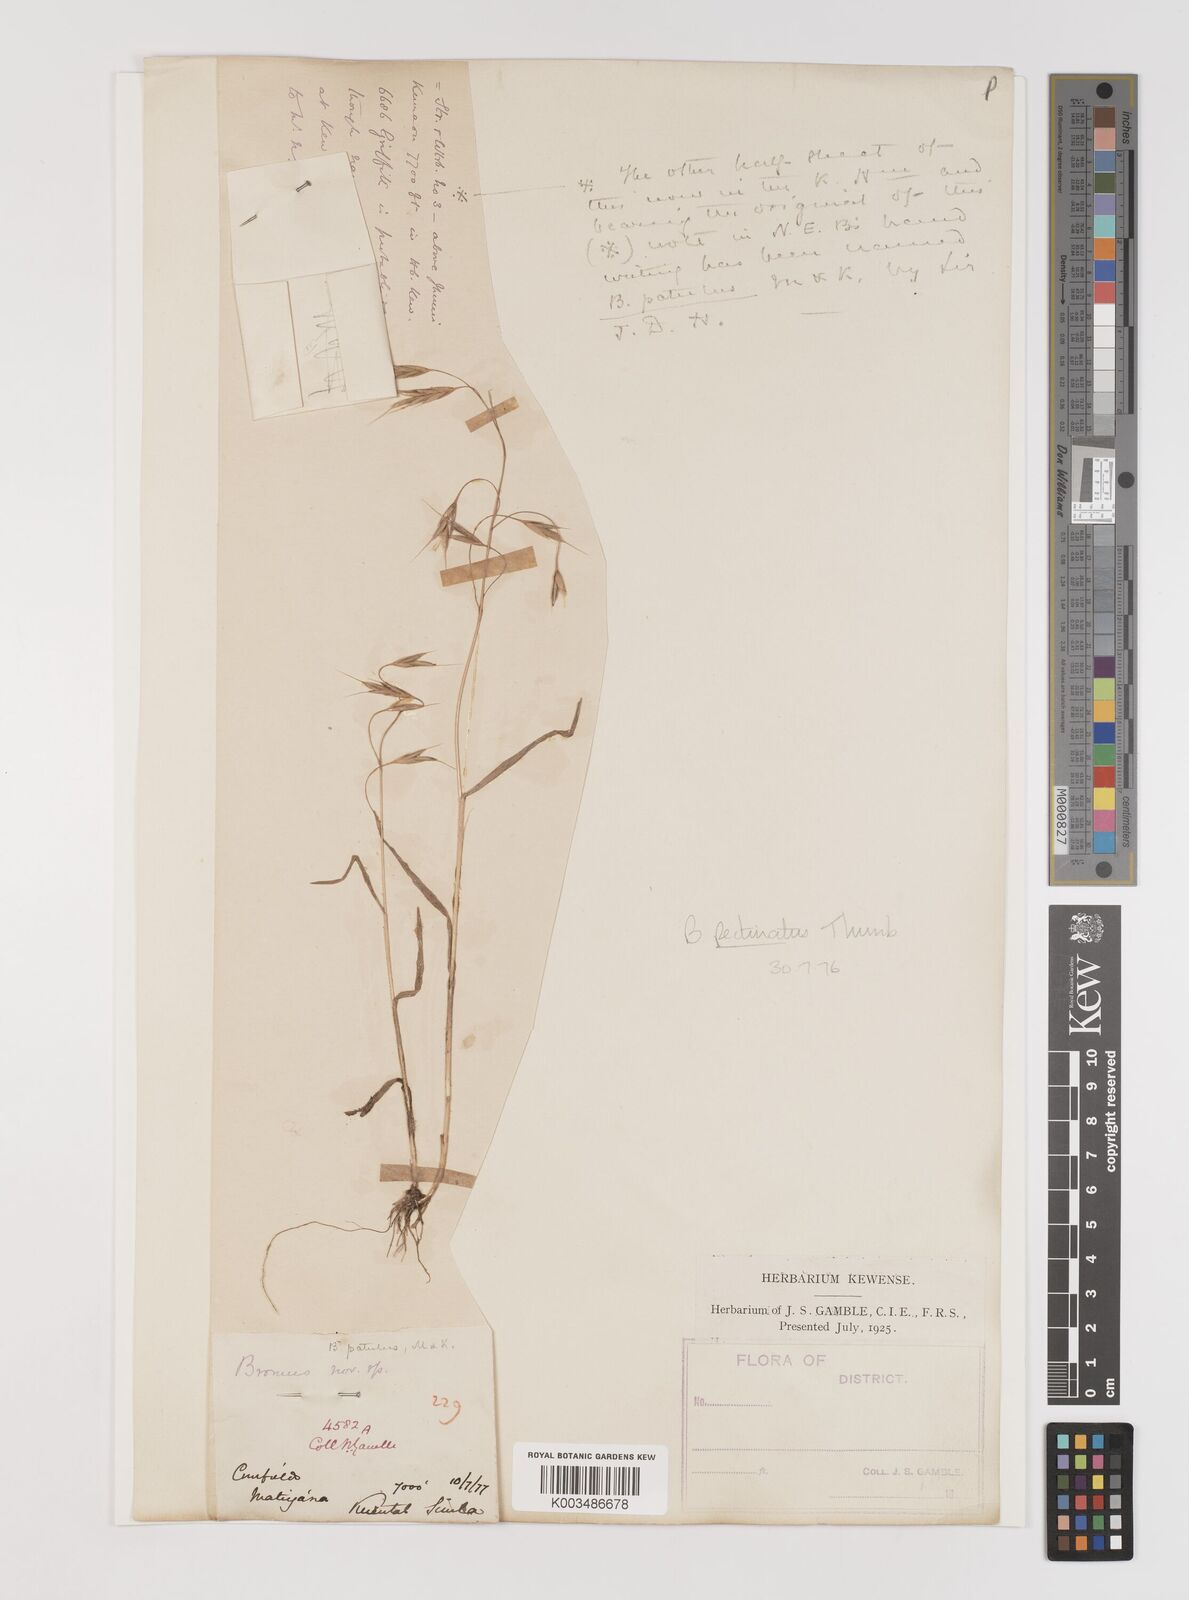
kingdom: Plantae
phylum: Tracheophyta
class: Liliopsida
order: Poales
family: Poaceae
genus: Bromus
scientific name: Bromus pectinatus
